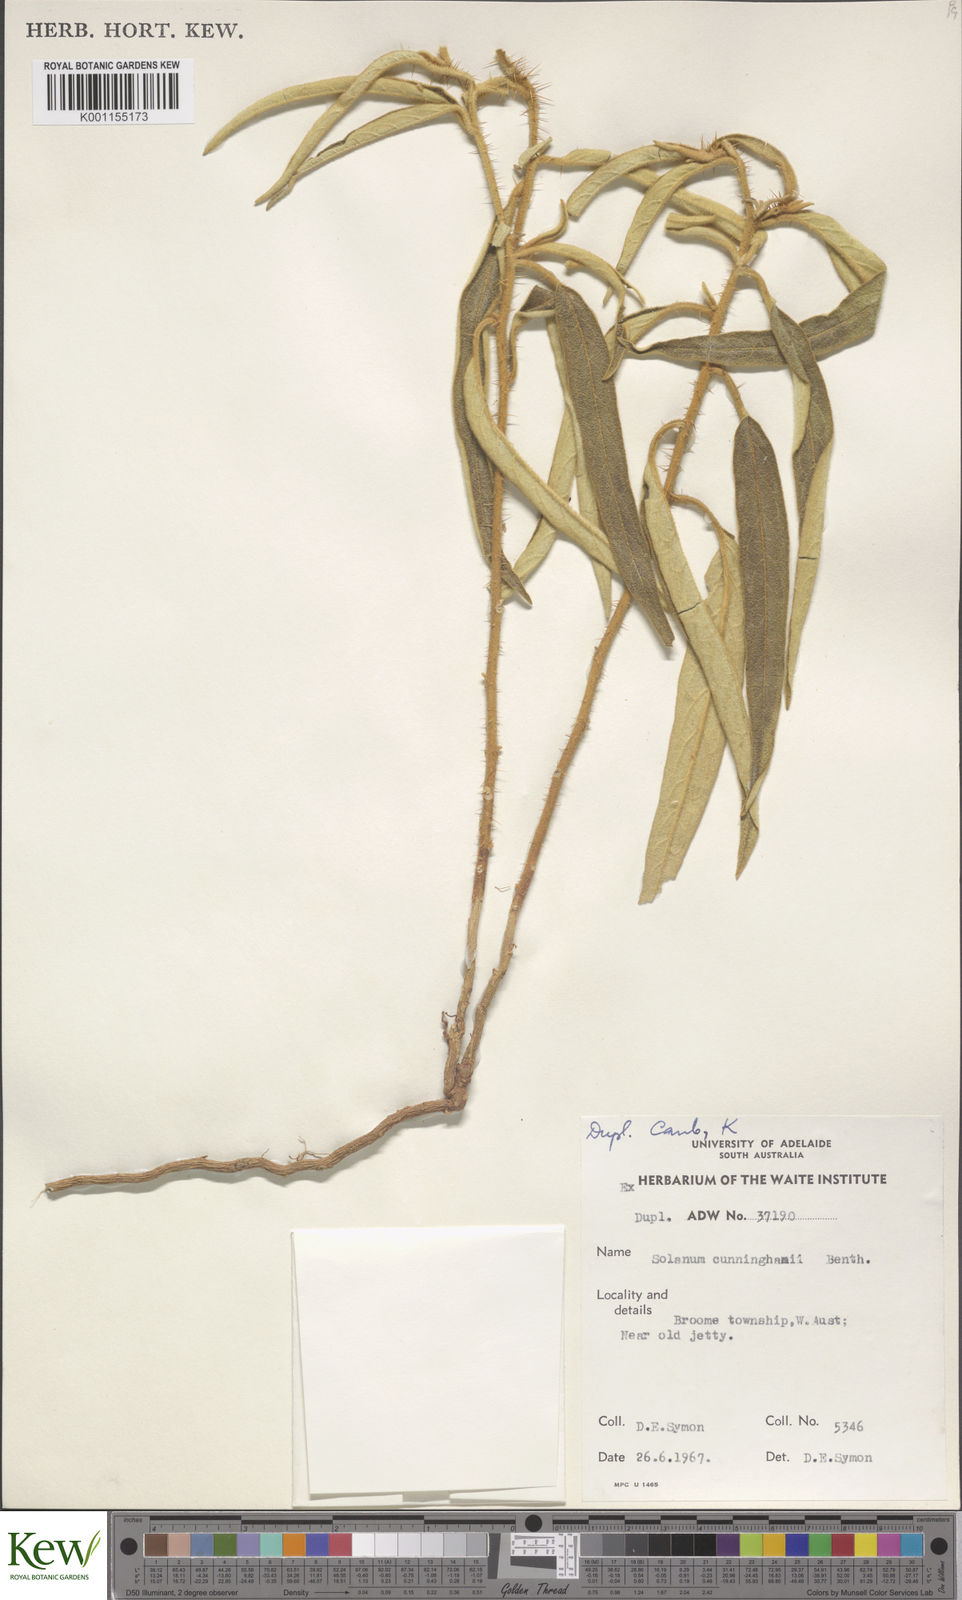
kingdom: Plantae
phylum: Tracheophyta
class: Magnoliopsida
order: Solanales
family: Solanaceae
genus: Solanum
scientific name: Solanum cunninghamii
